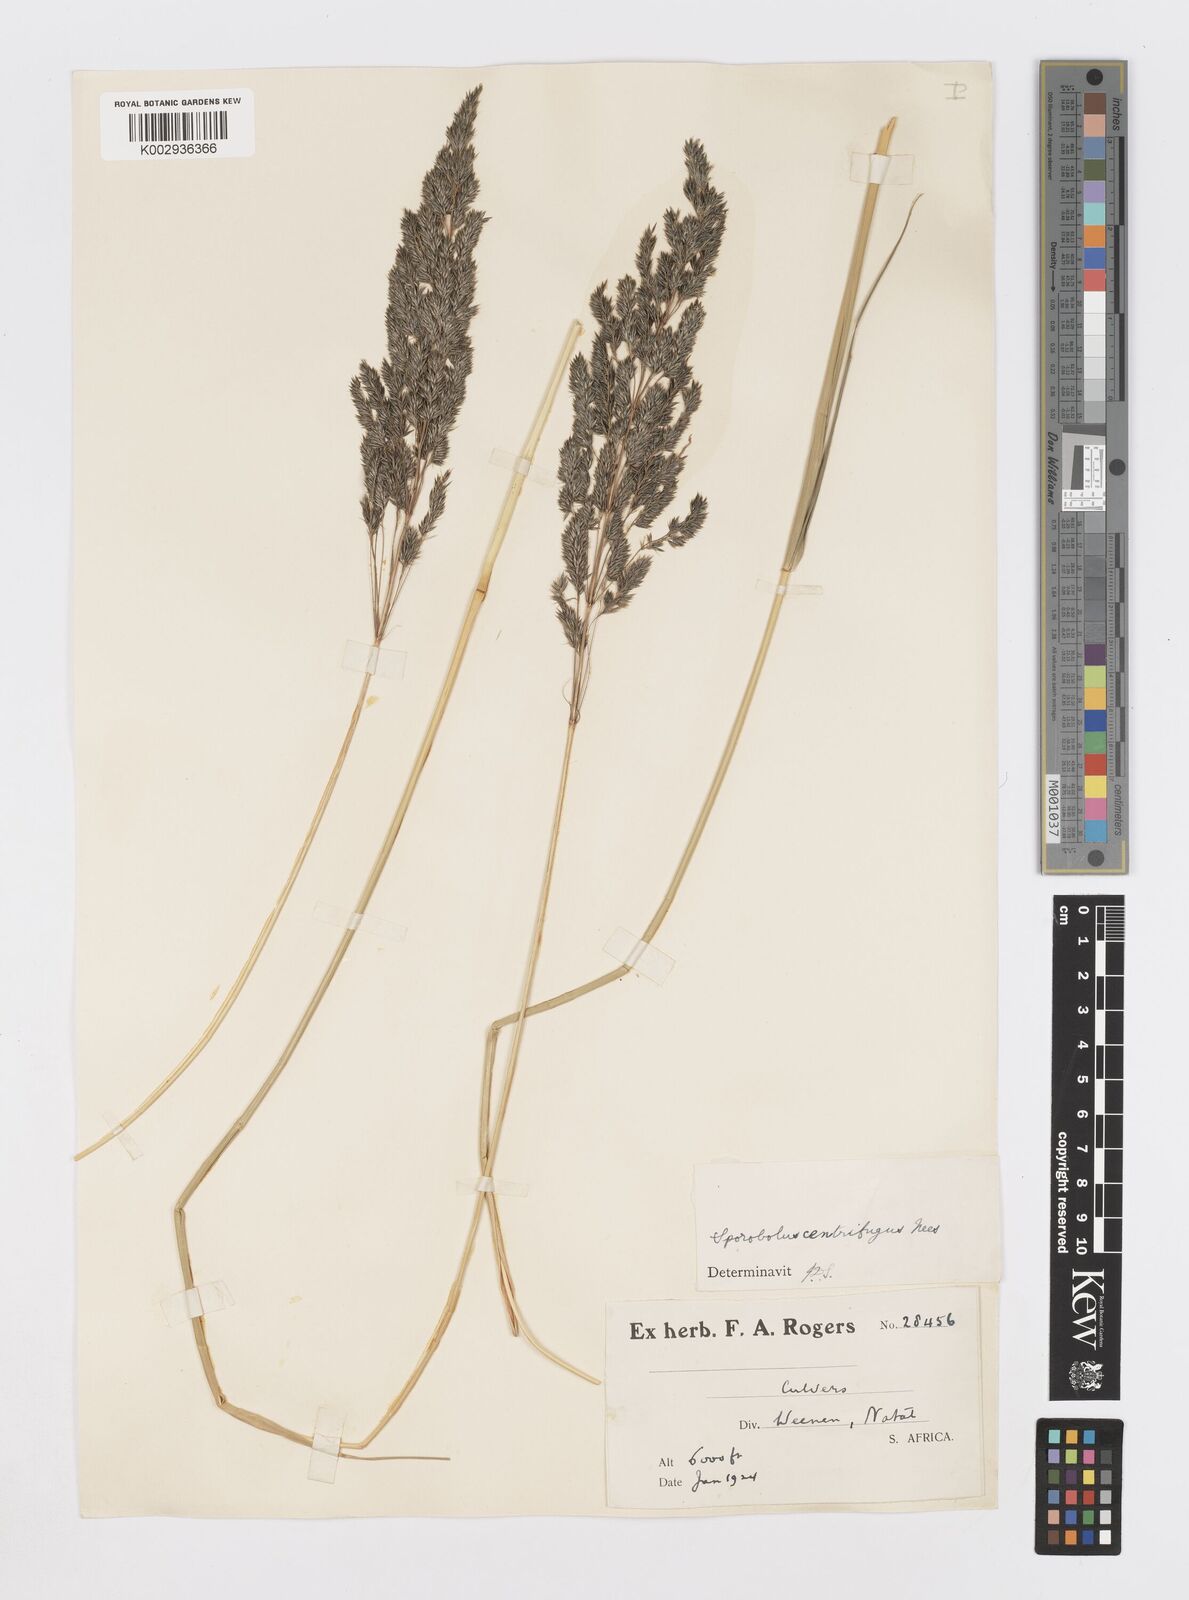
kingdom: Plantae
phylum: Tracheophyta
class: Liliopsida
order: Poales
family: Poaceae
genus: Sporobolus
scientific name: Sporobolus centrifugus
